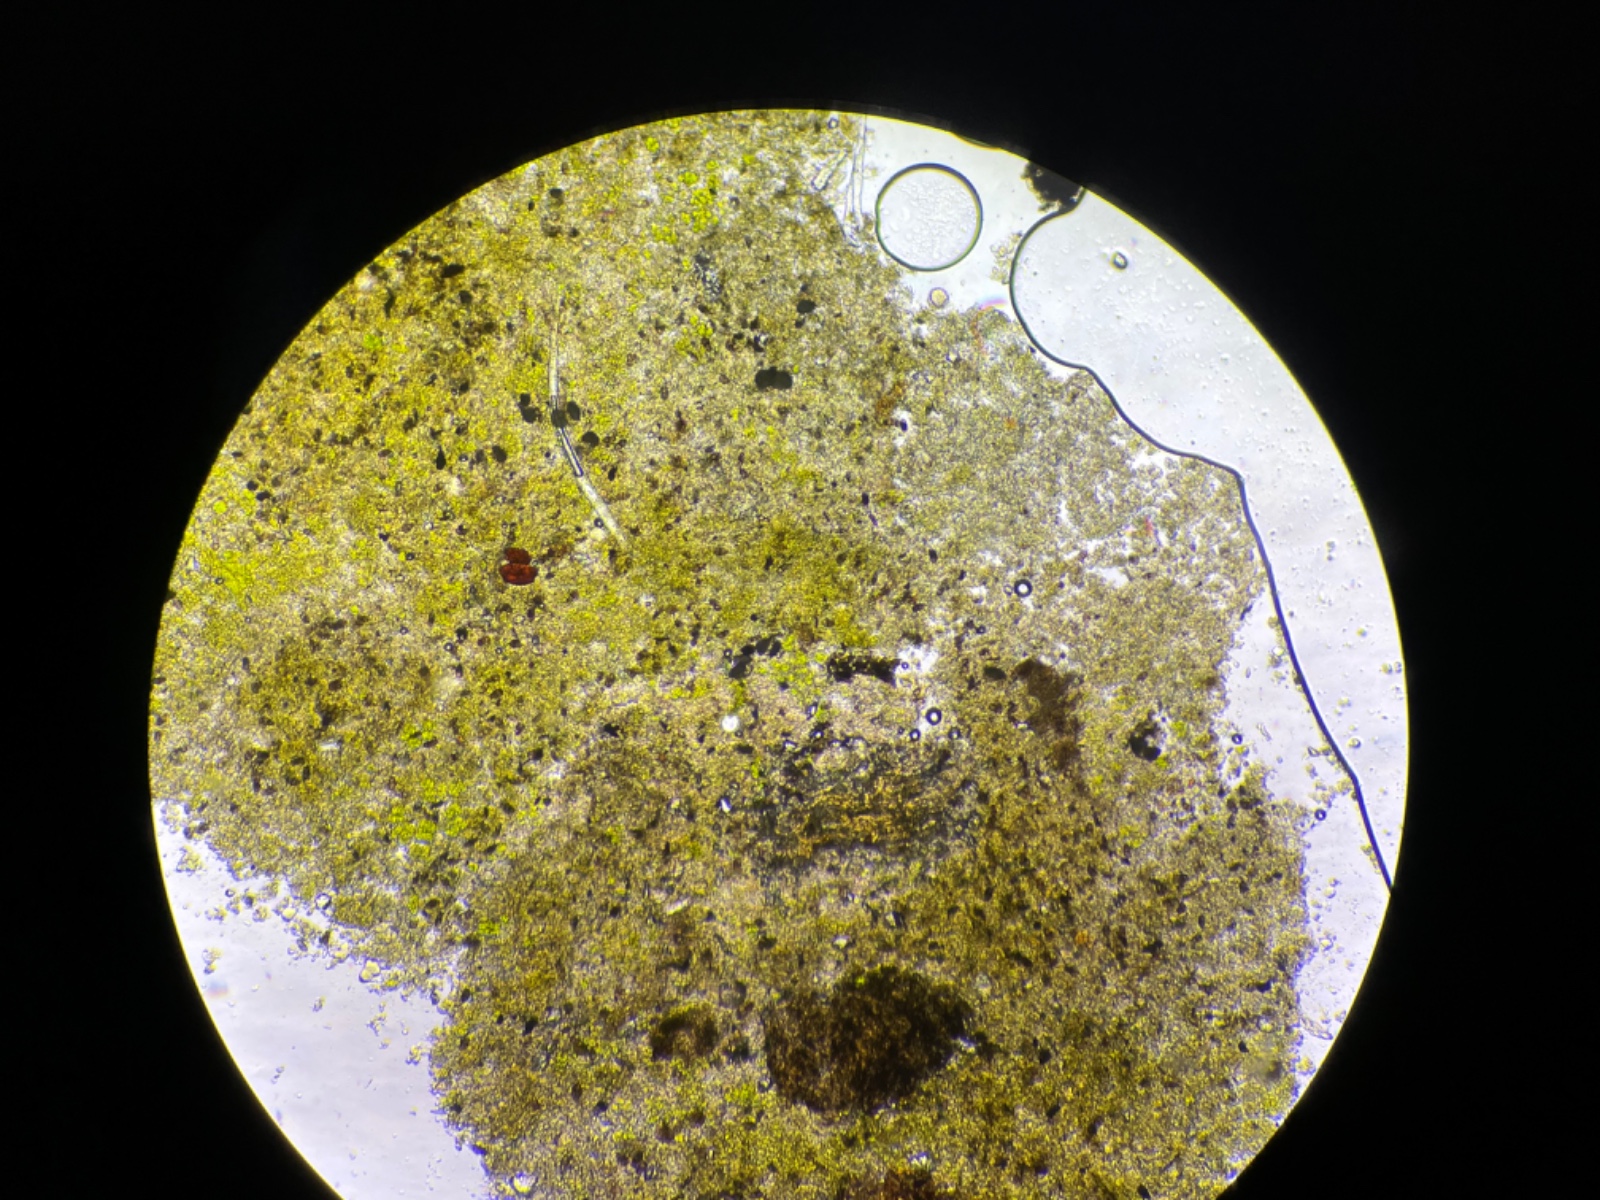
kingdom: Fungi
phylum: Ascomycota
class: Dothideomycetes
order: Botryosphaeriales
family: Botryosphaeriaceae
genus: Diplodia
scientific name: Diplodia
